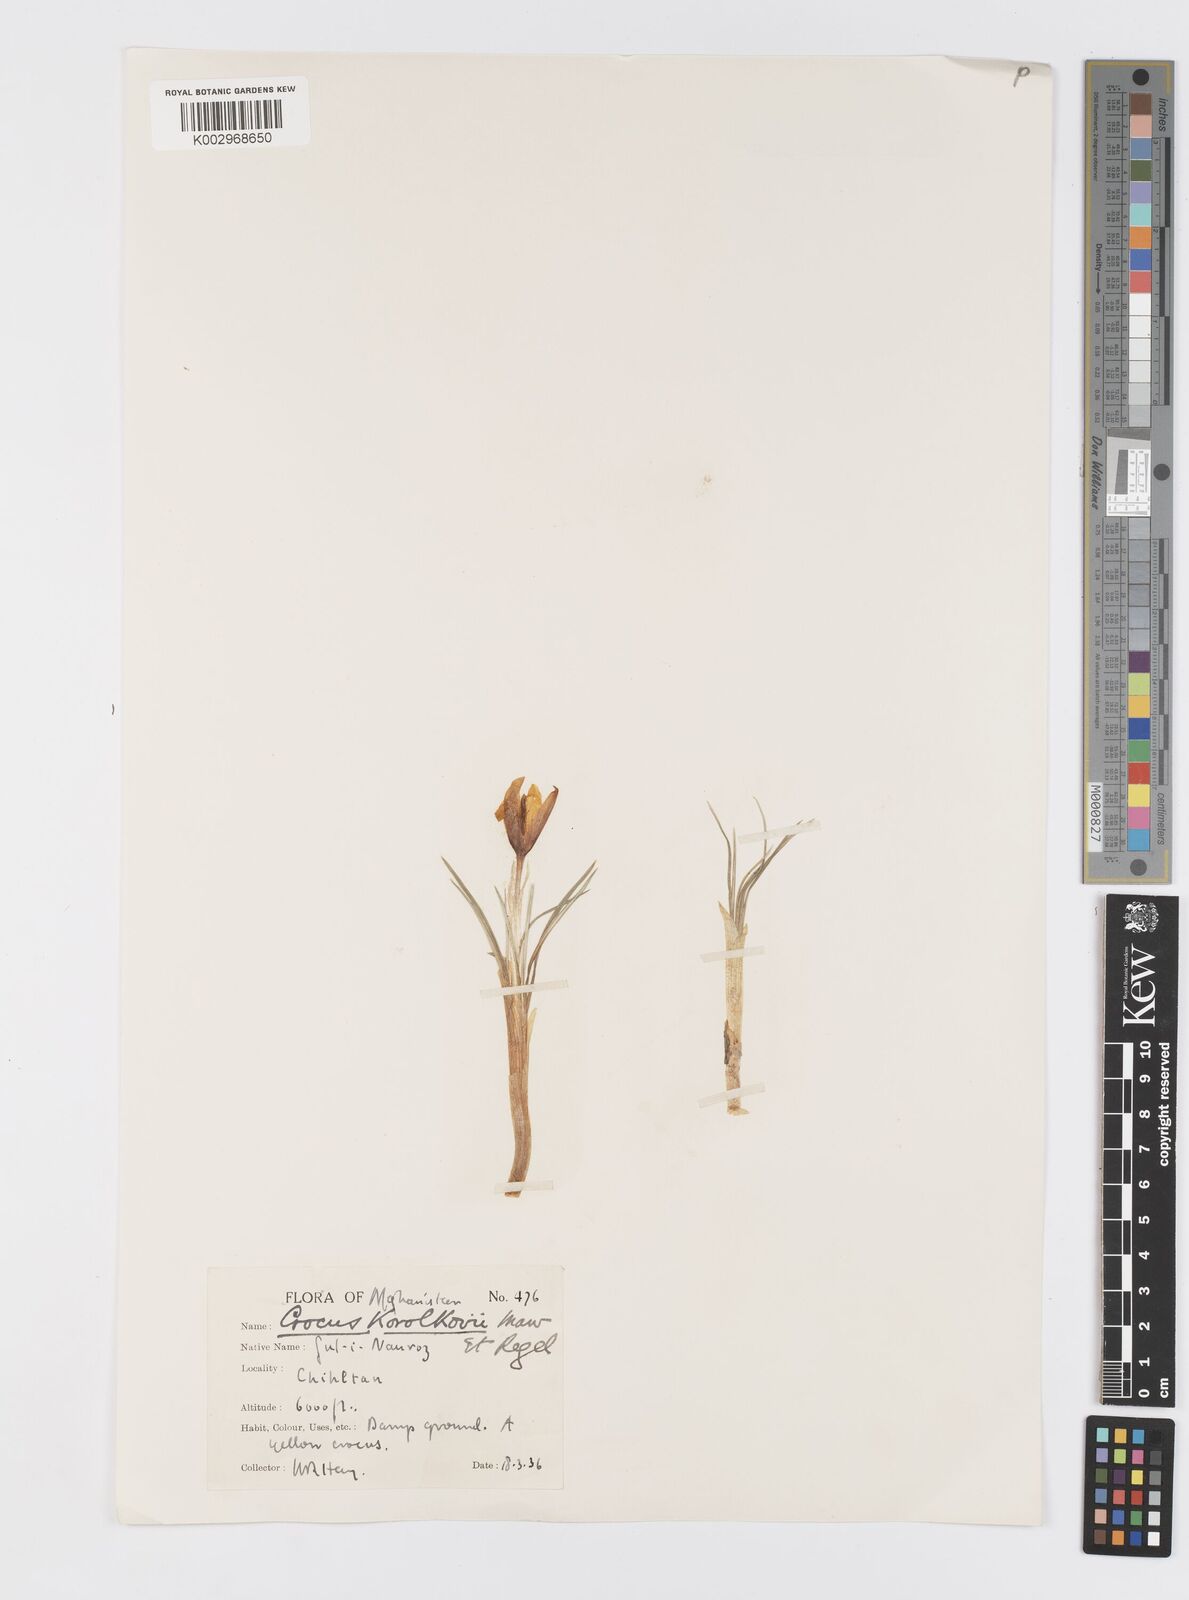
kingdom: Plantae
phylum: Tracheophyta
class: Liliopsida
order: Asparagales
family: Iridaceae
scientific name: Iridaceae
